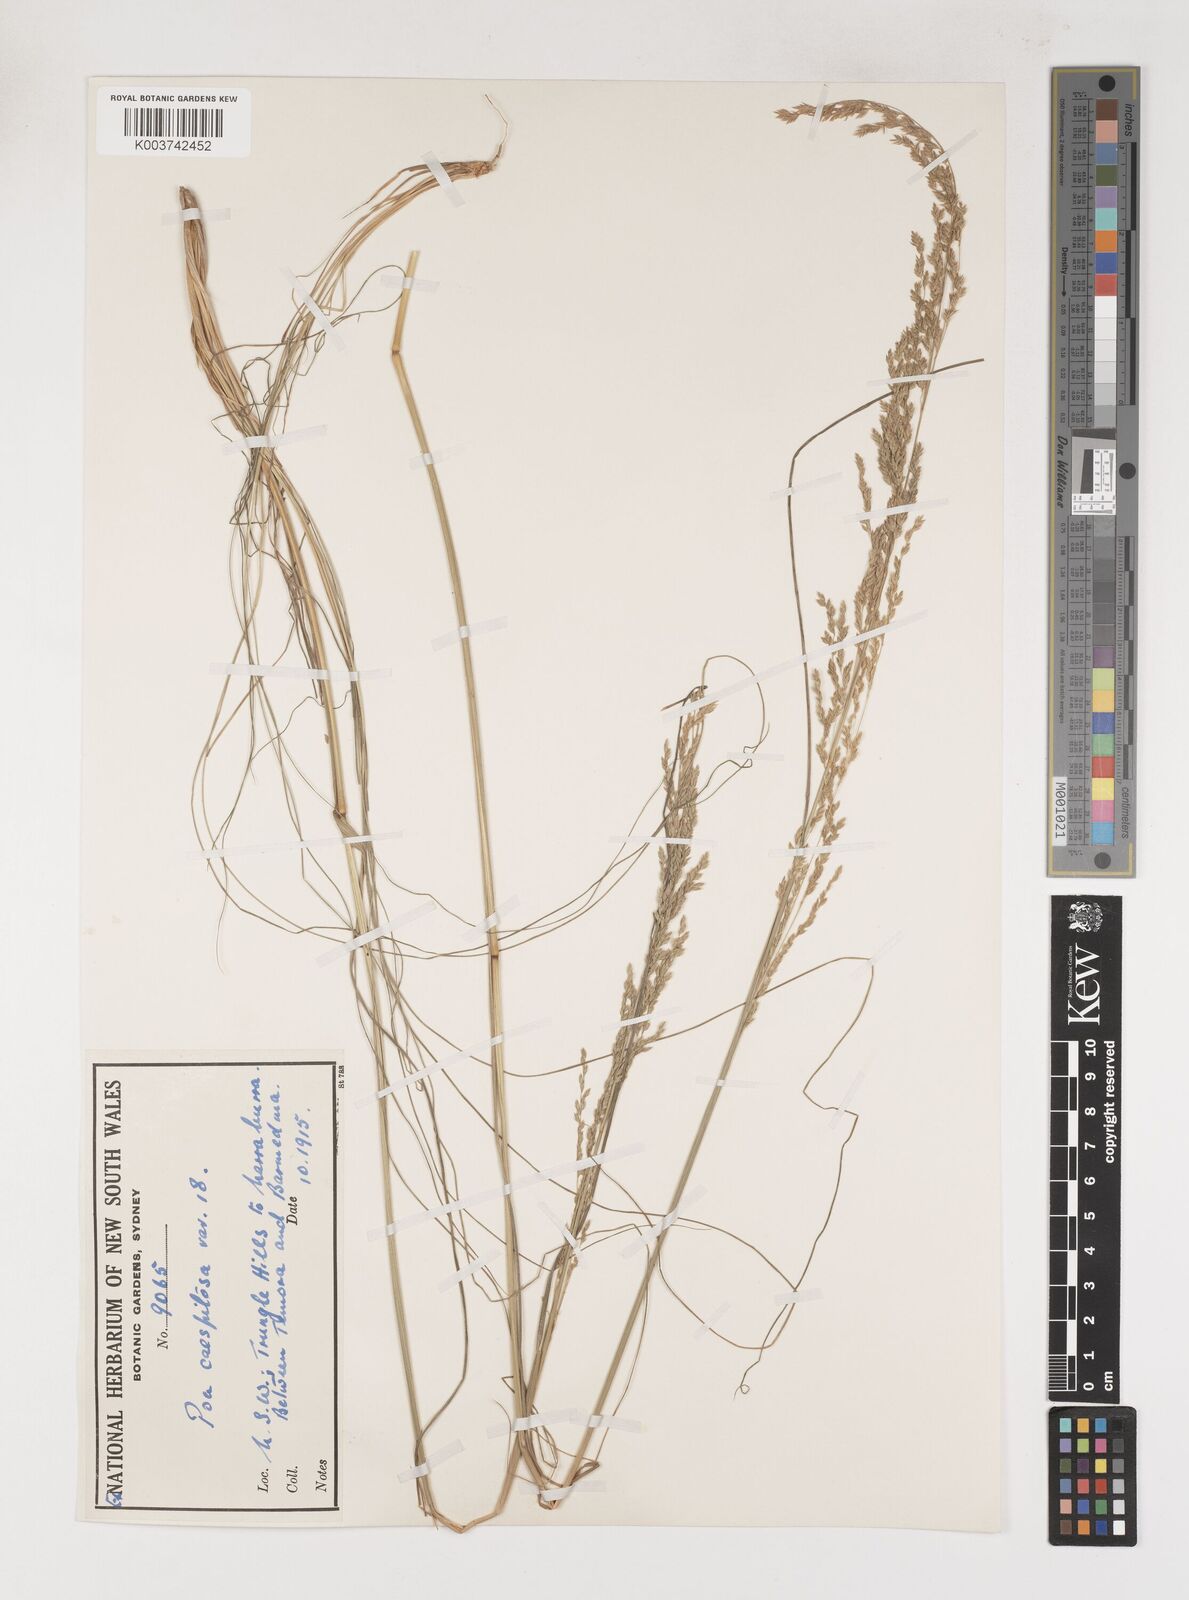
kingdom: Plantae
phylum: Tracheophyta
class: Liliopsida
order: Poales
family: Poaceae
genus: Poa
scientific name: Poa
